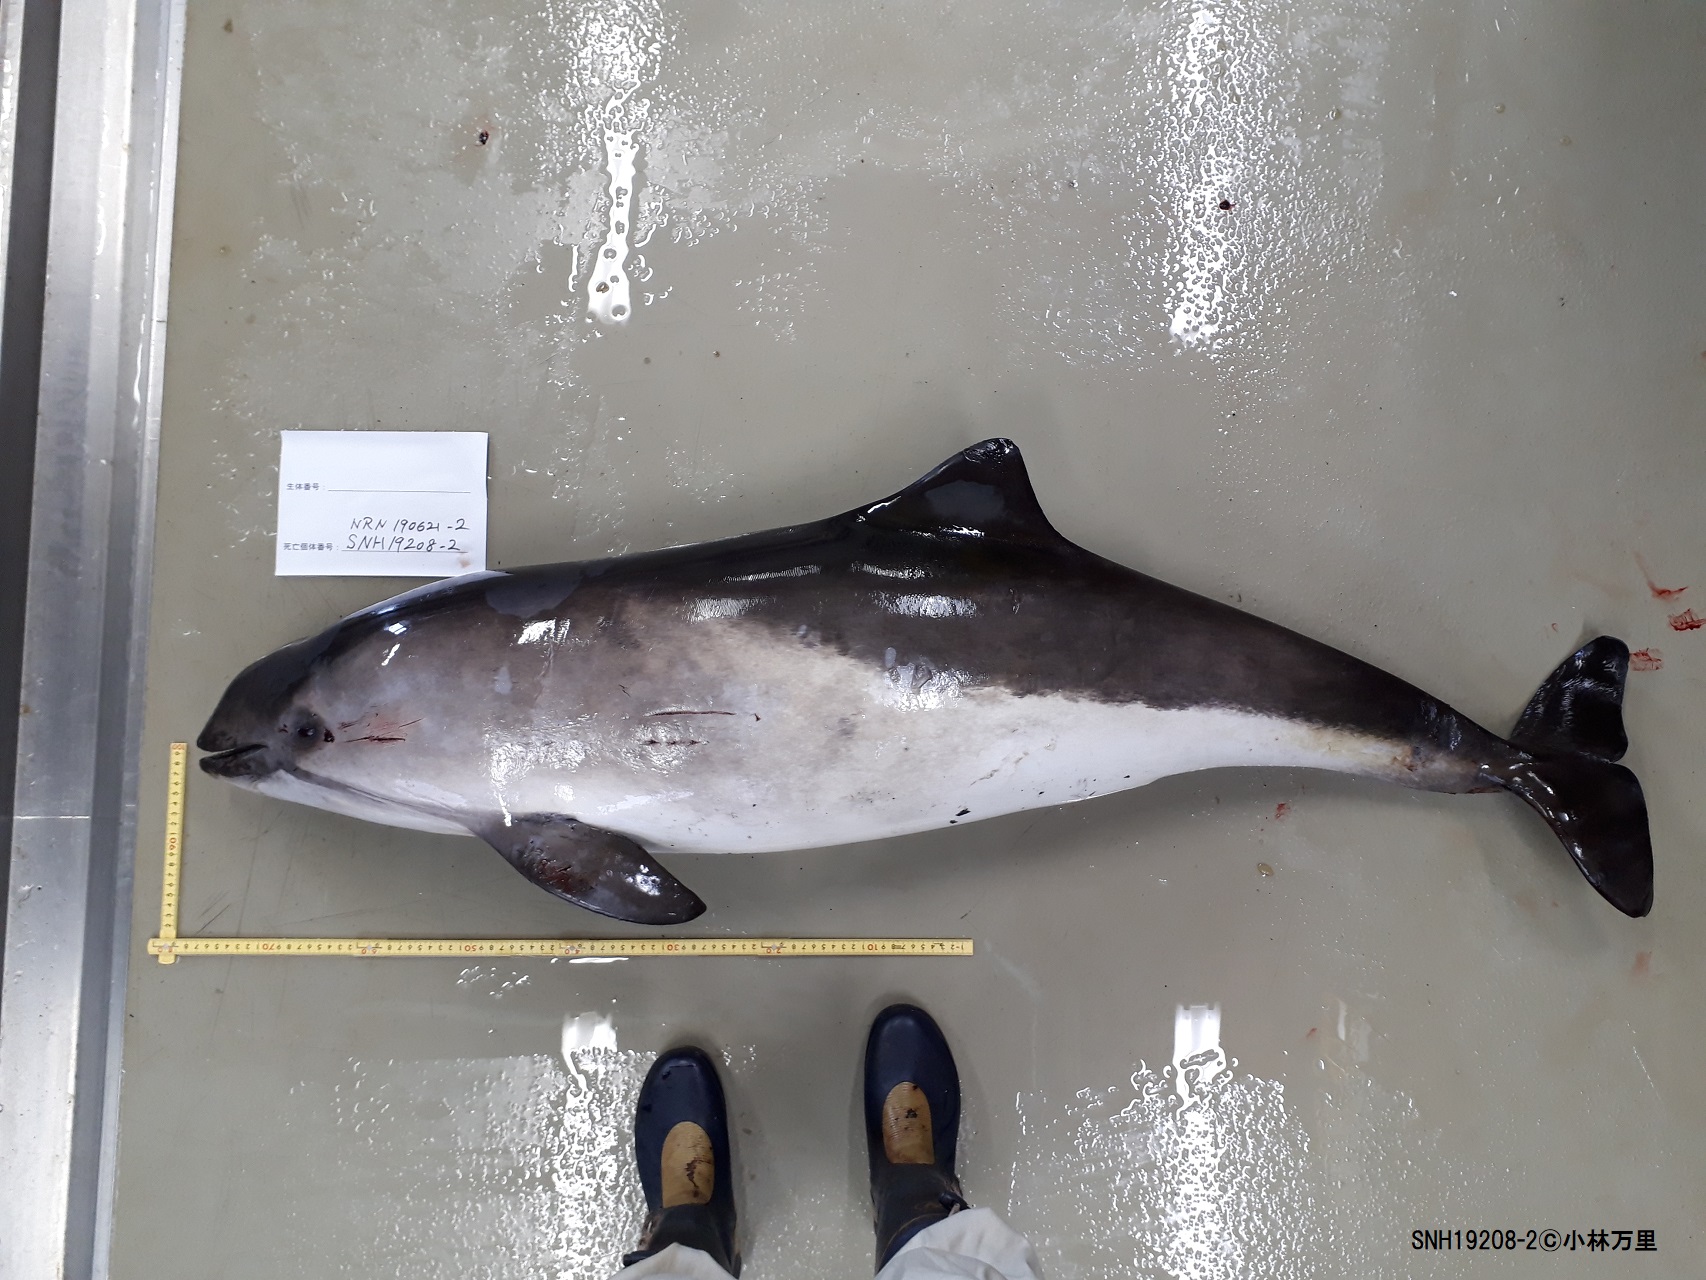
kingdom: Animalia
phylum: Chordata
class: Mammalia
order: Cetacea
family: Phocoenidae
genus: Phocoena
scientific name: Phocoena phocoena
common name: Harbour porpoise
